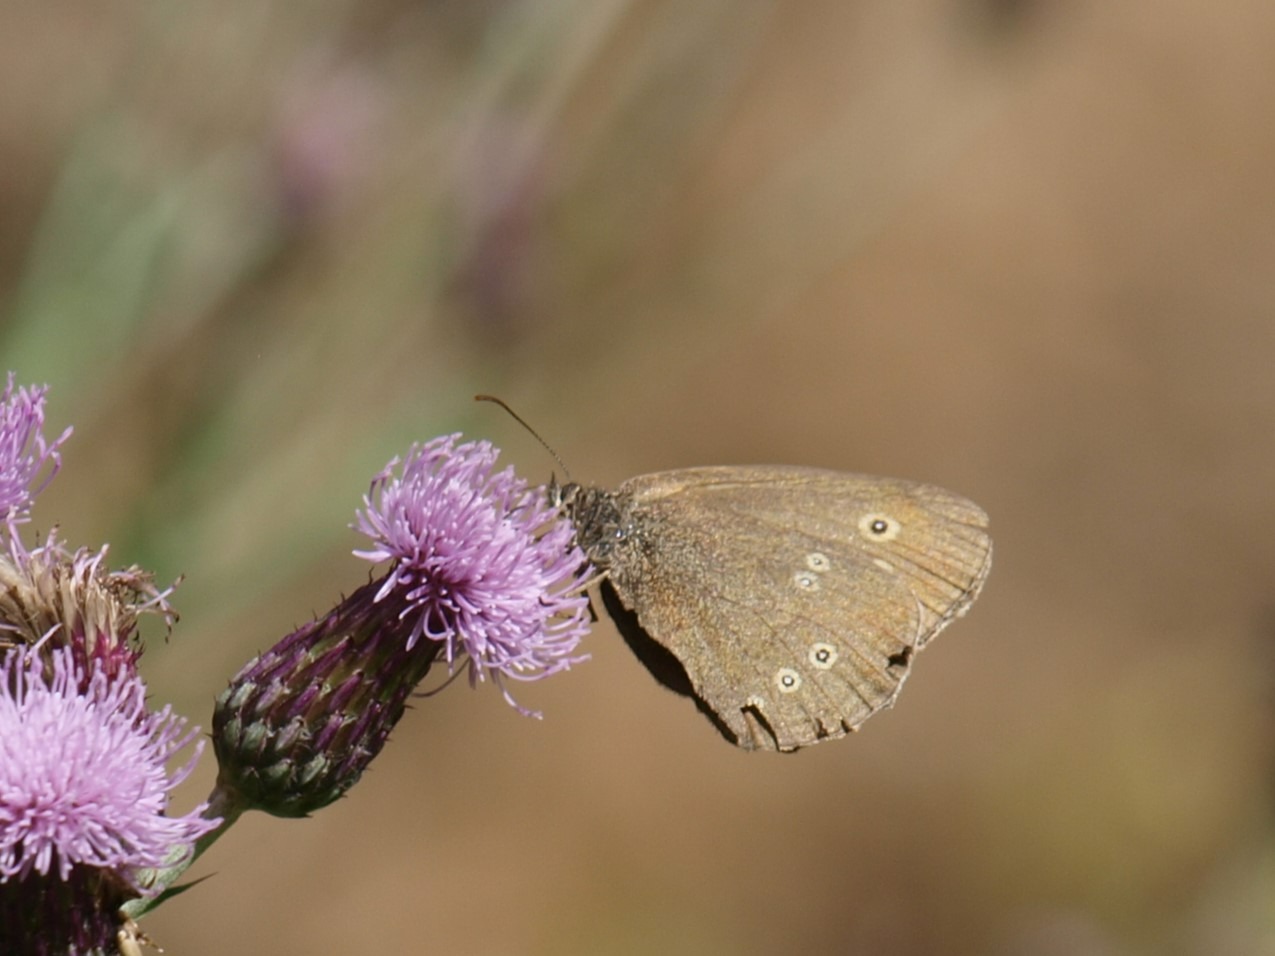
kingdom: Animalia
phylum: Arthropoda
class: Insecta
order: Lepidoptera
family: Nymphalidae
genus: Aphantopus
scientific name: Aphantopus hyperantus
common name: Engrandøje
